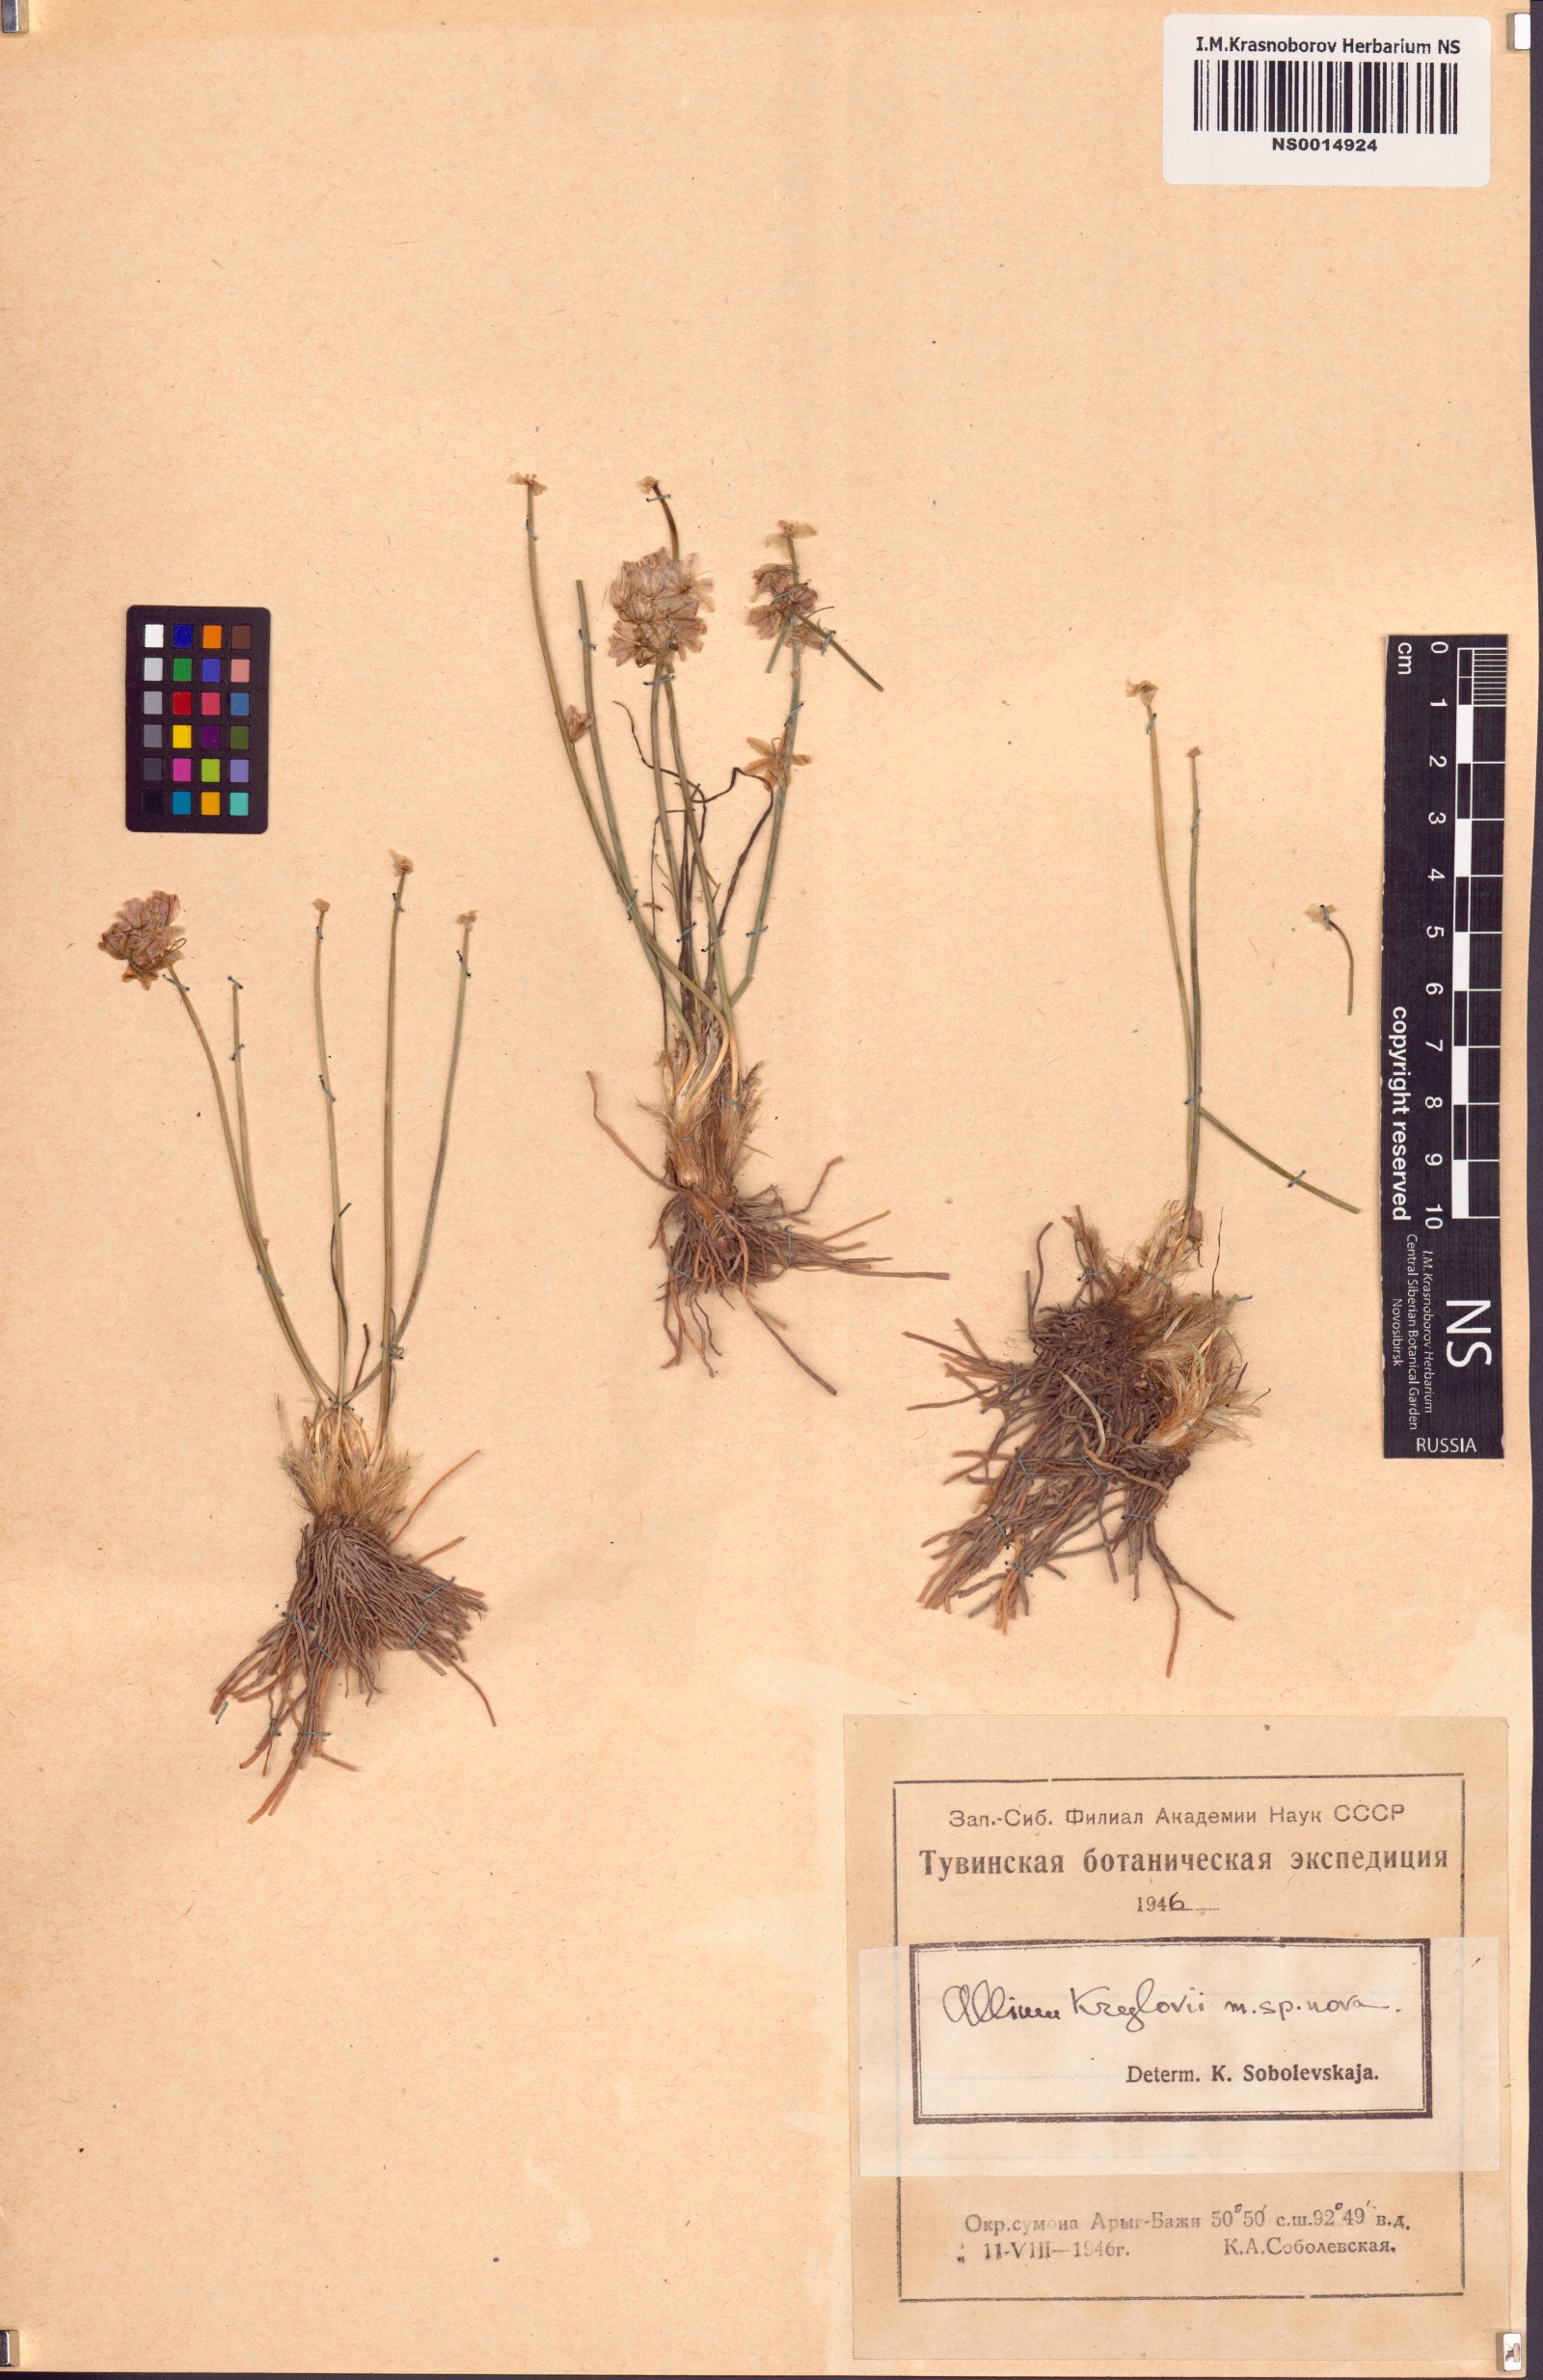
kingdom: Plantae
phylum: Tracheophyta
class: Liliopsida
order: Asparagales
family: Amaryllidaceae
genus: Allium
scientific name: Allium mongolicum
